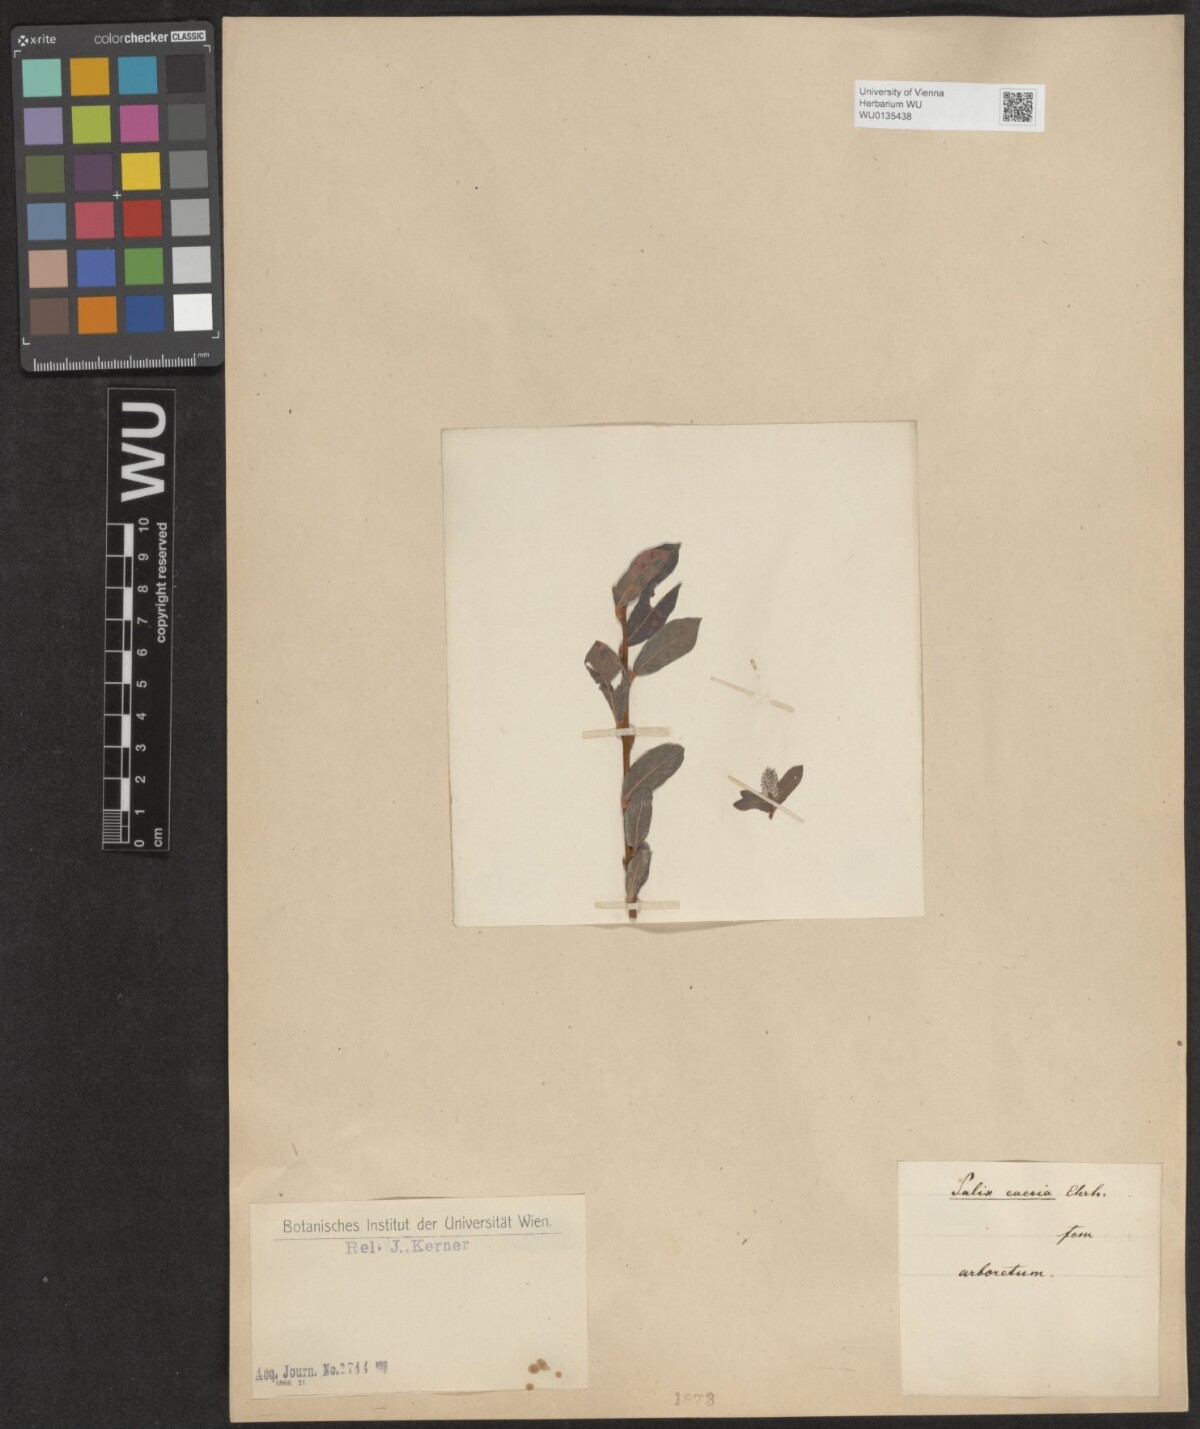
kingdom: Plantae
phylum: Tracheophyta
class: Magnoliopsida
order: Malpighiales
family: Salicaceae
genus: Salix
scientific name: Salix caesia
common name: Blue willow
